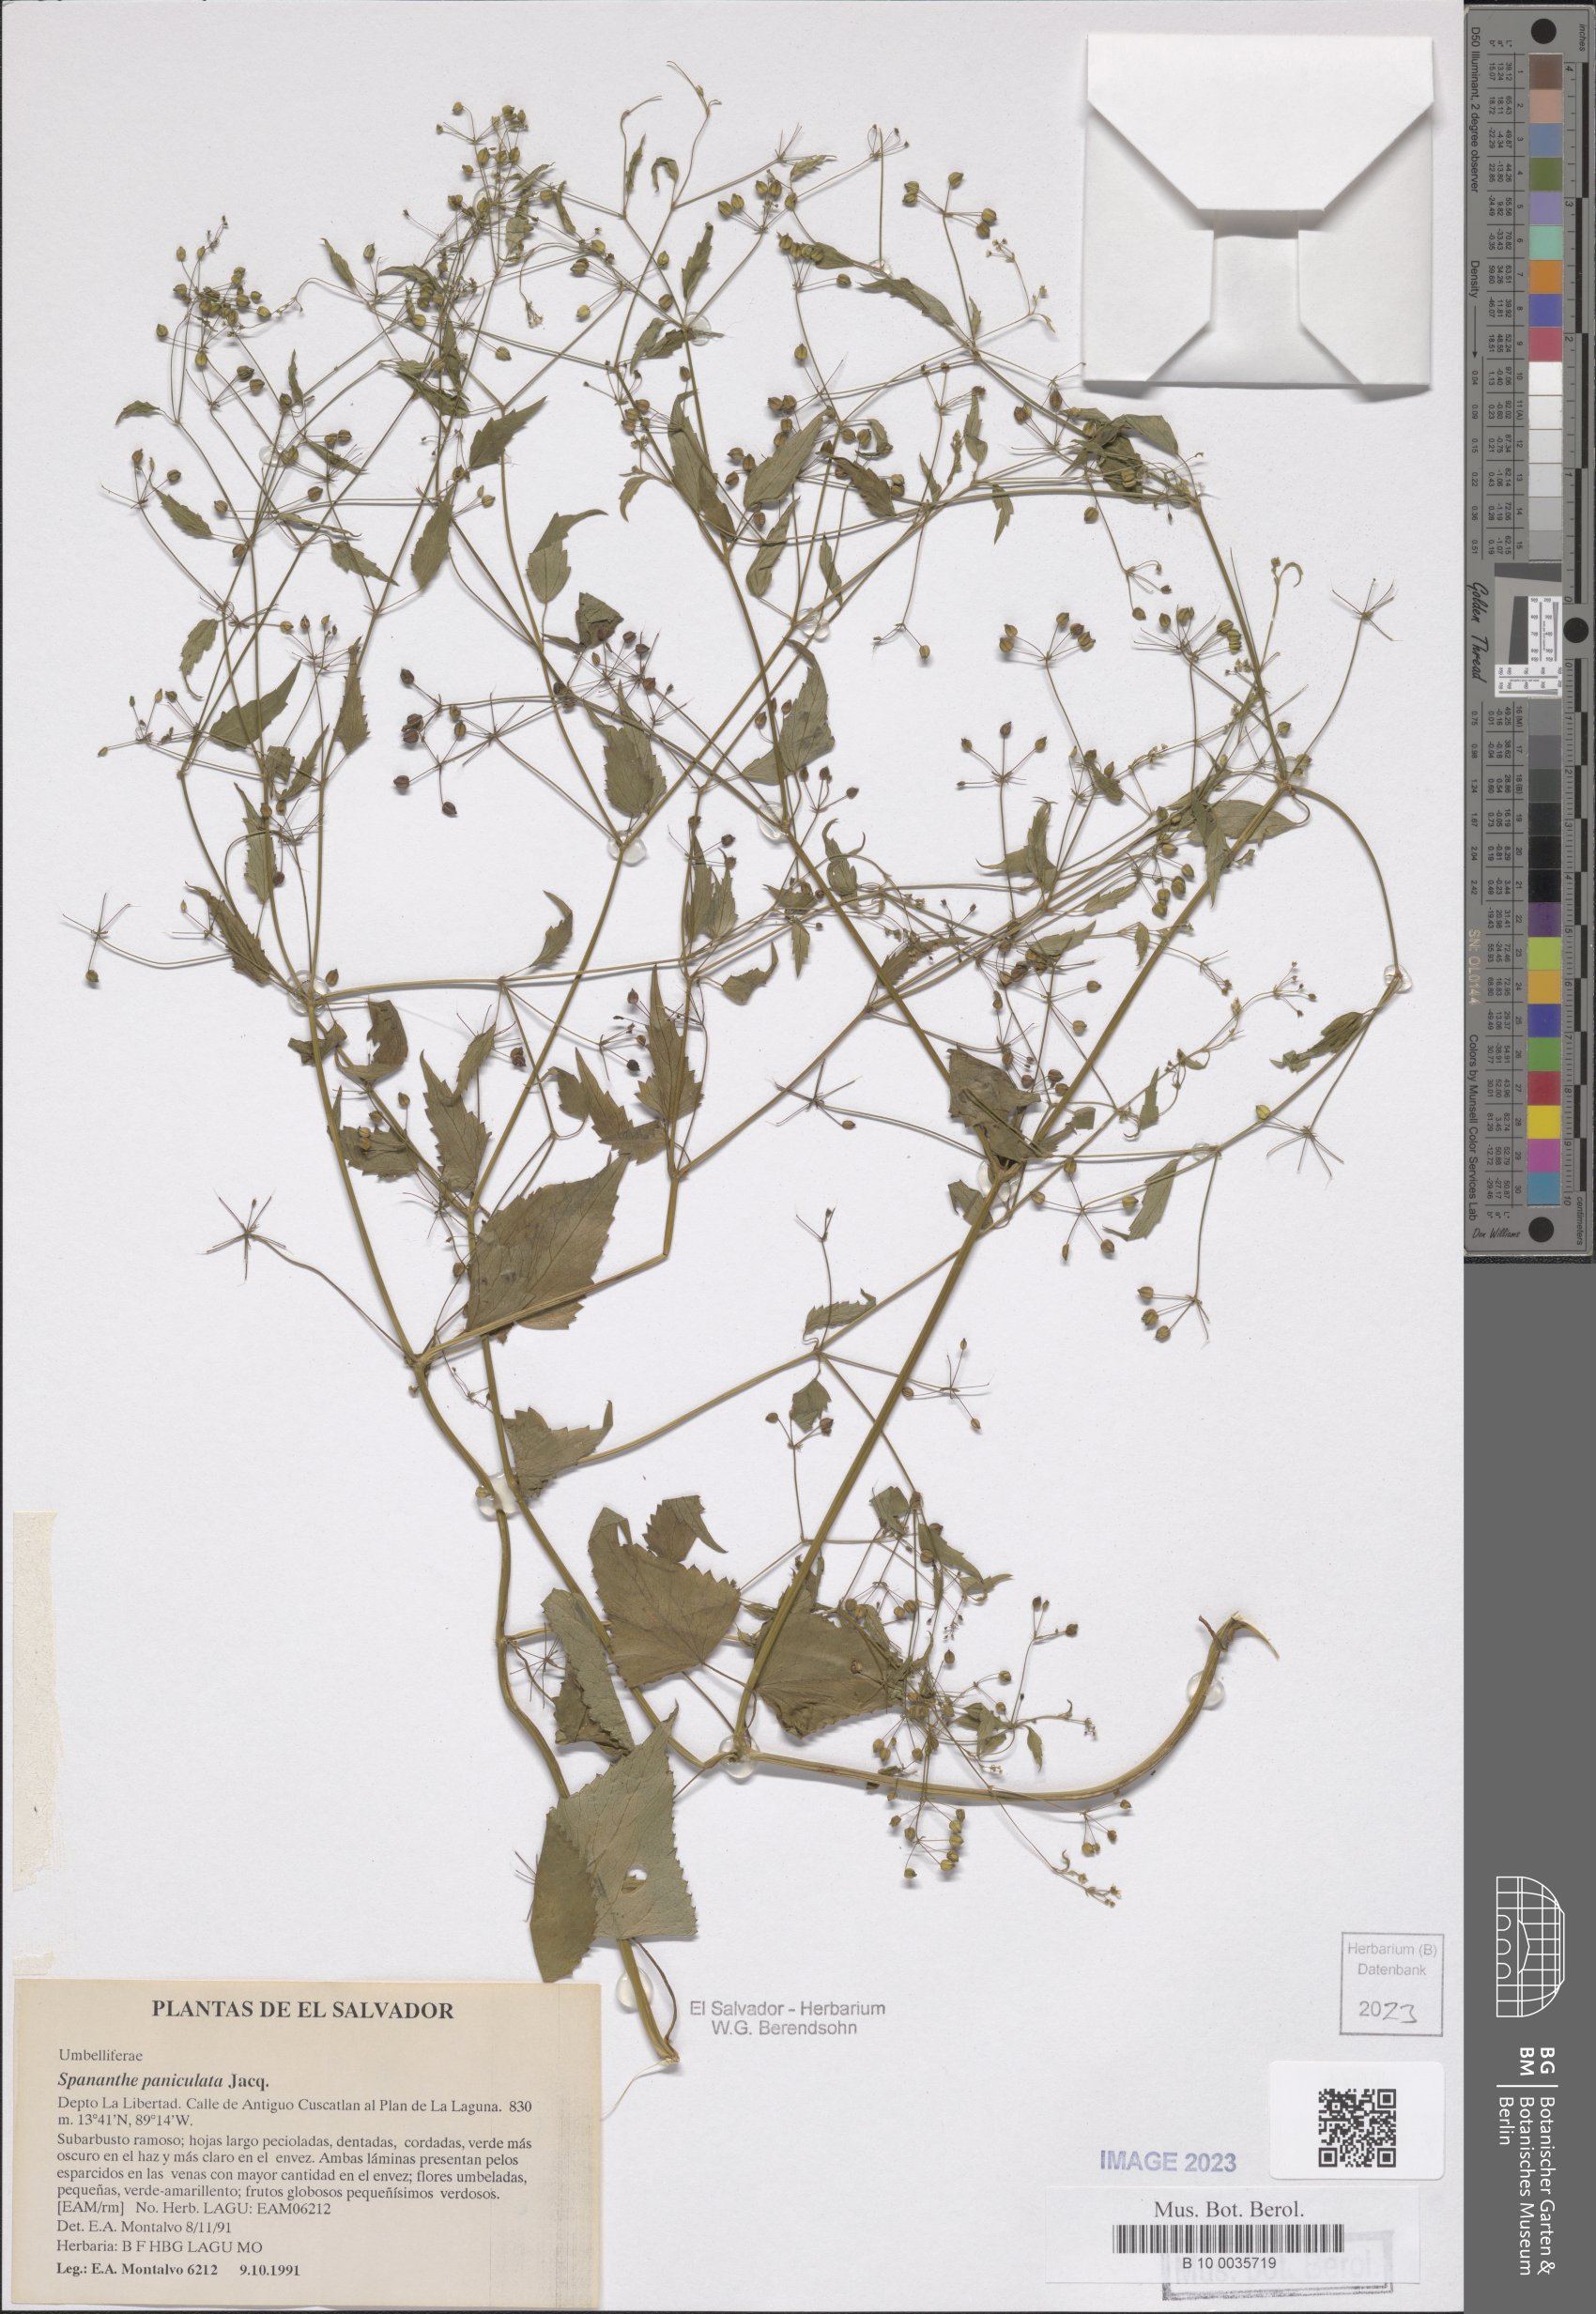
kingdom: Plantae
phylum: Tracheophyta
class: Magnoliopsida
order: Apiales
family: Apiaceae
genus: Spananthe
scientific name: Spananthe paniculata
